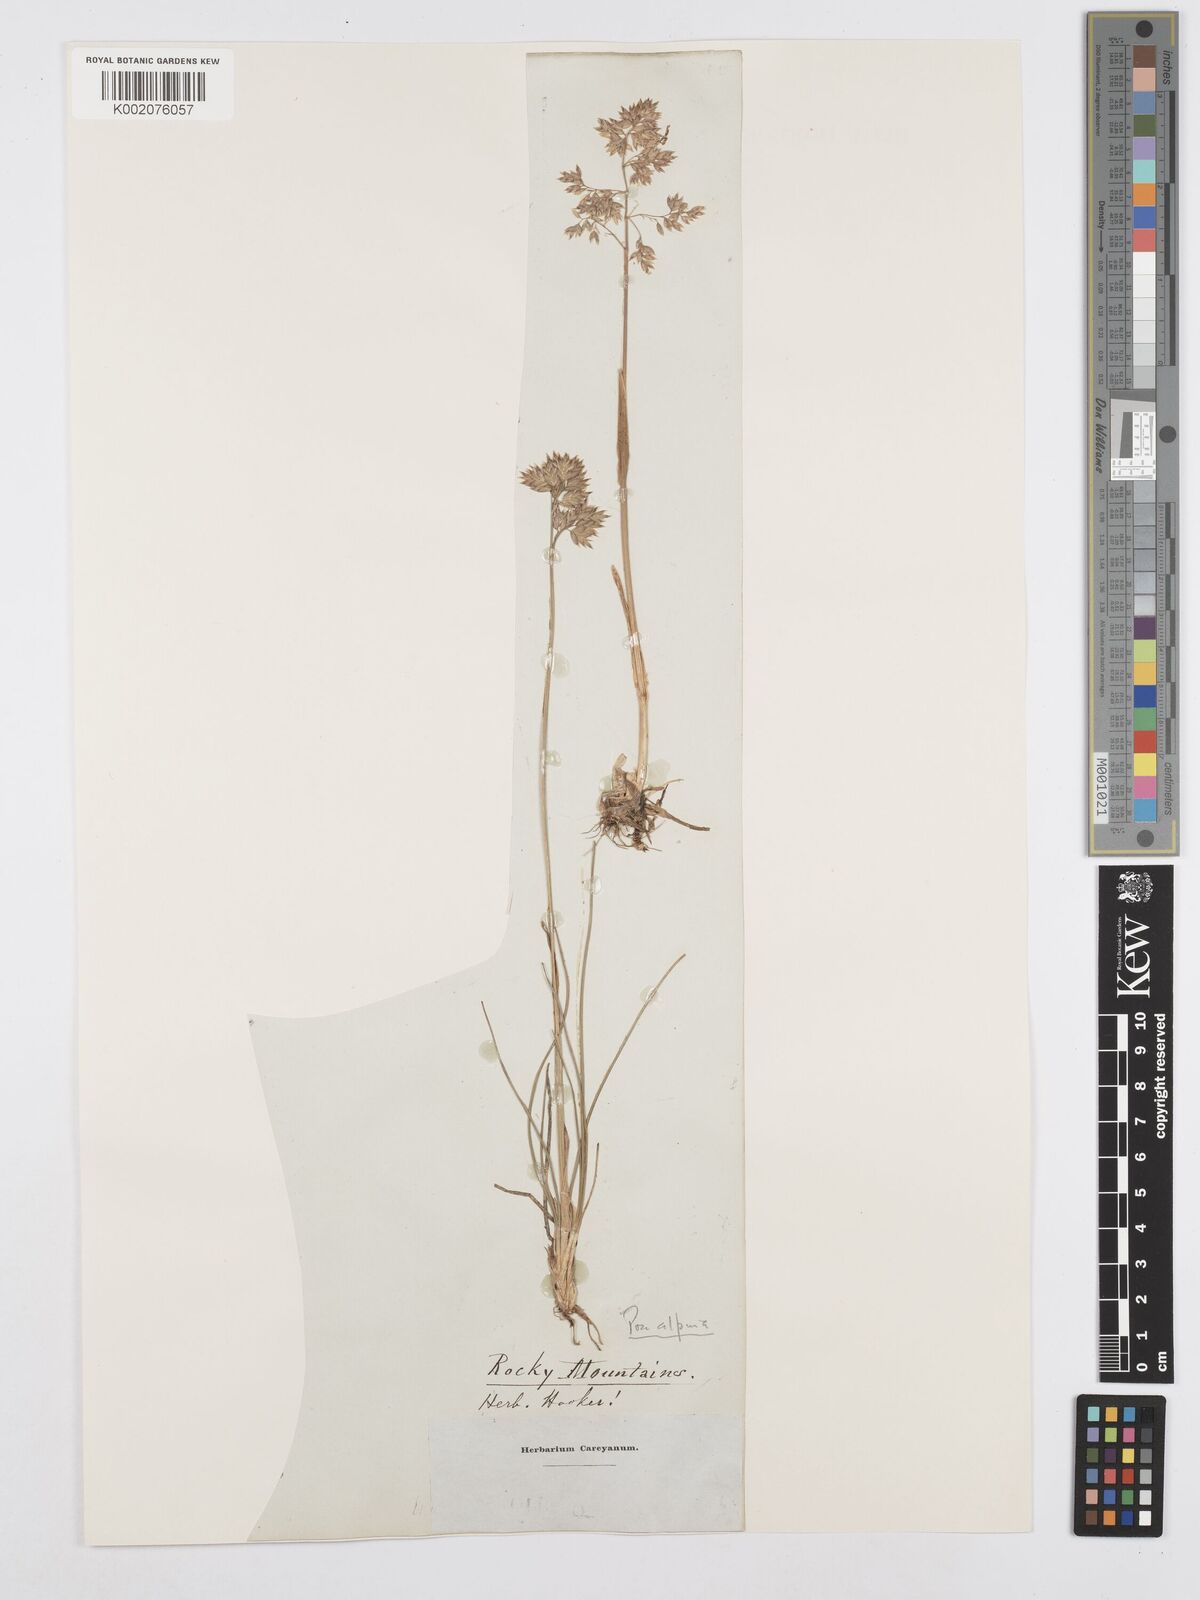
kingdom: Plantae
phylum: Tracheophyta
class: Liliopsida
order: Poales
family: Poaceae
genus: Poa
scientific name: Poa alpina
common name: Alpine bluegrass
